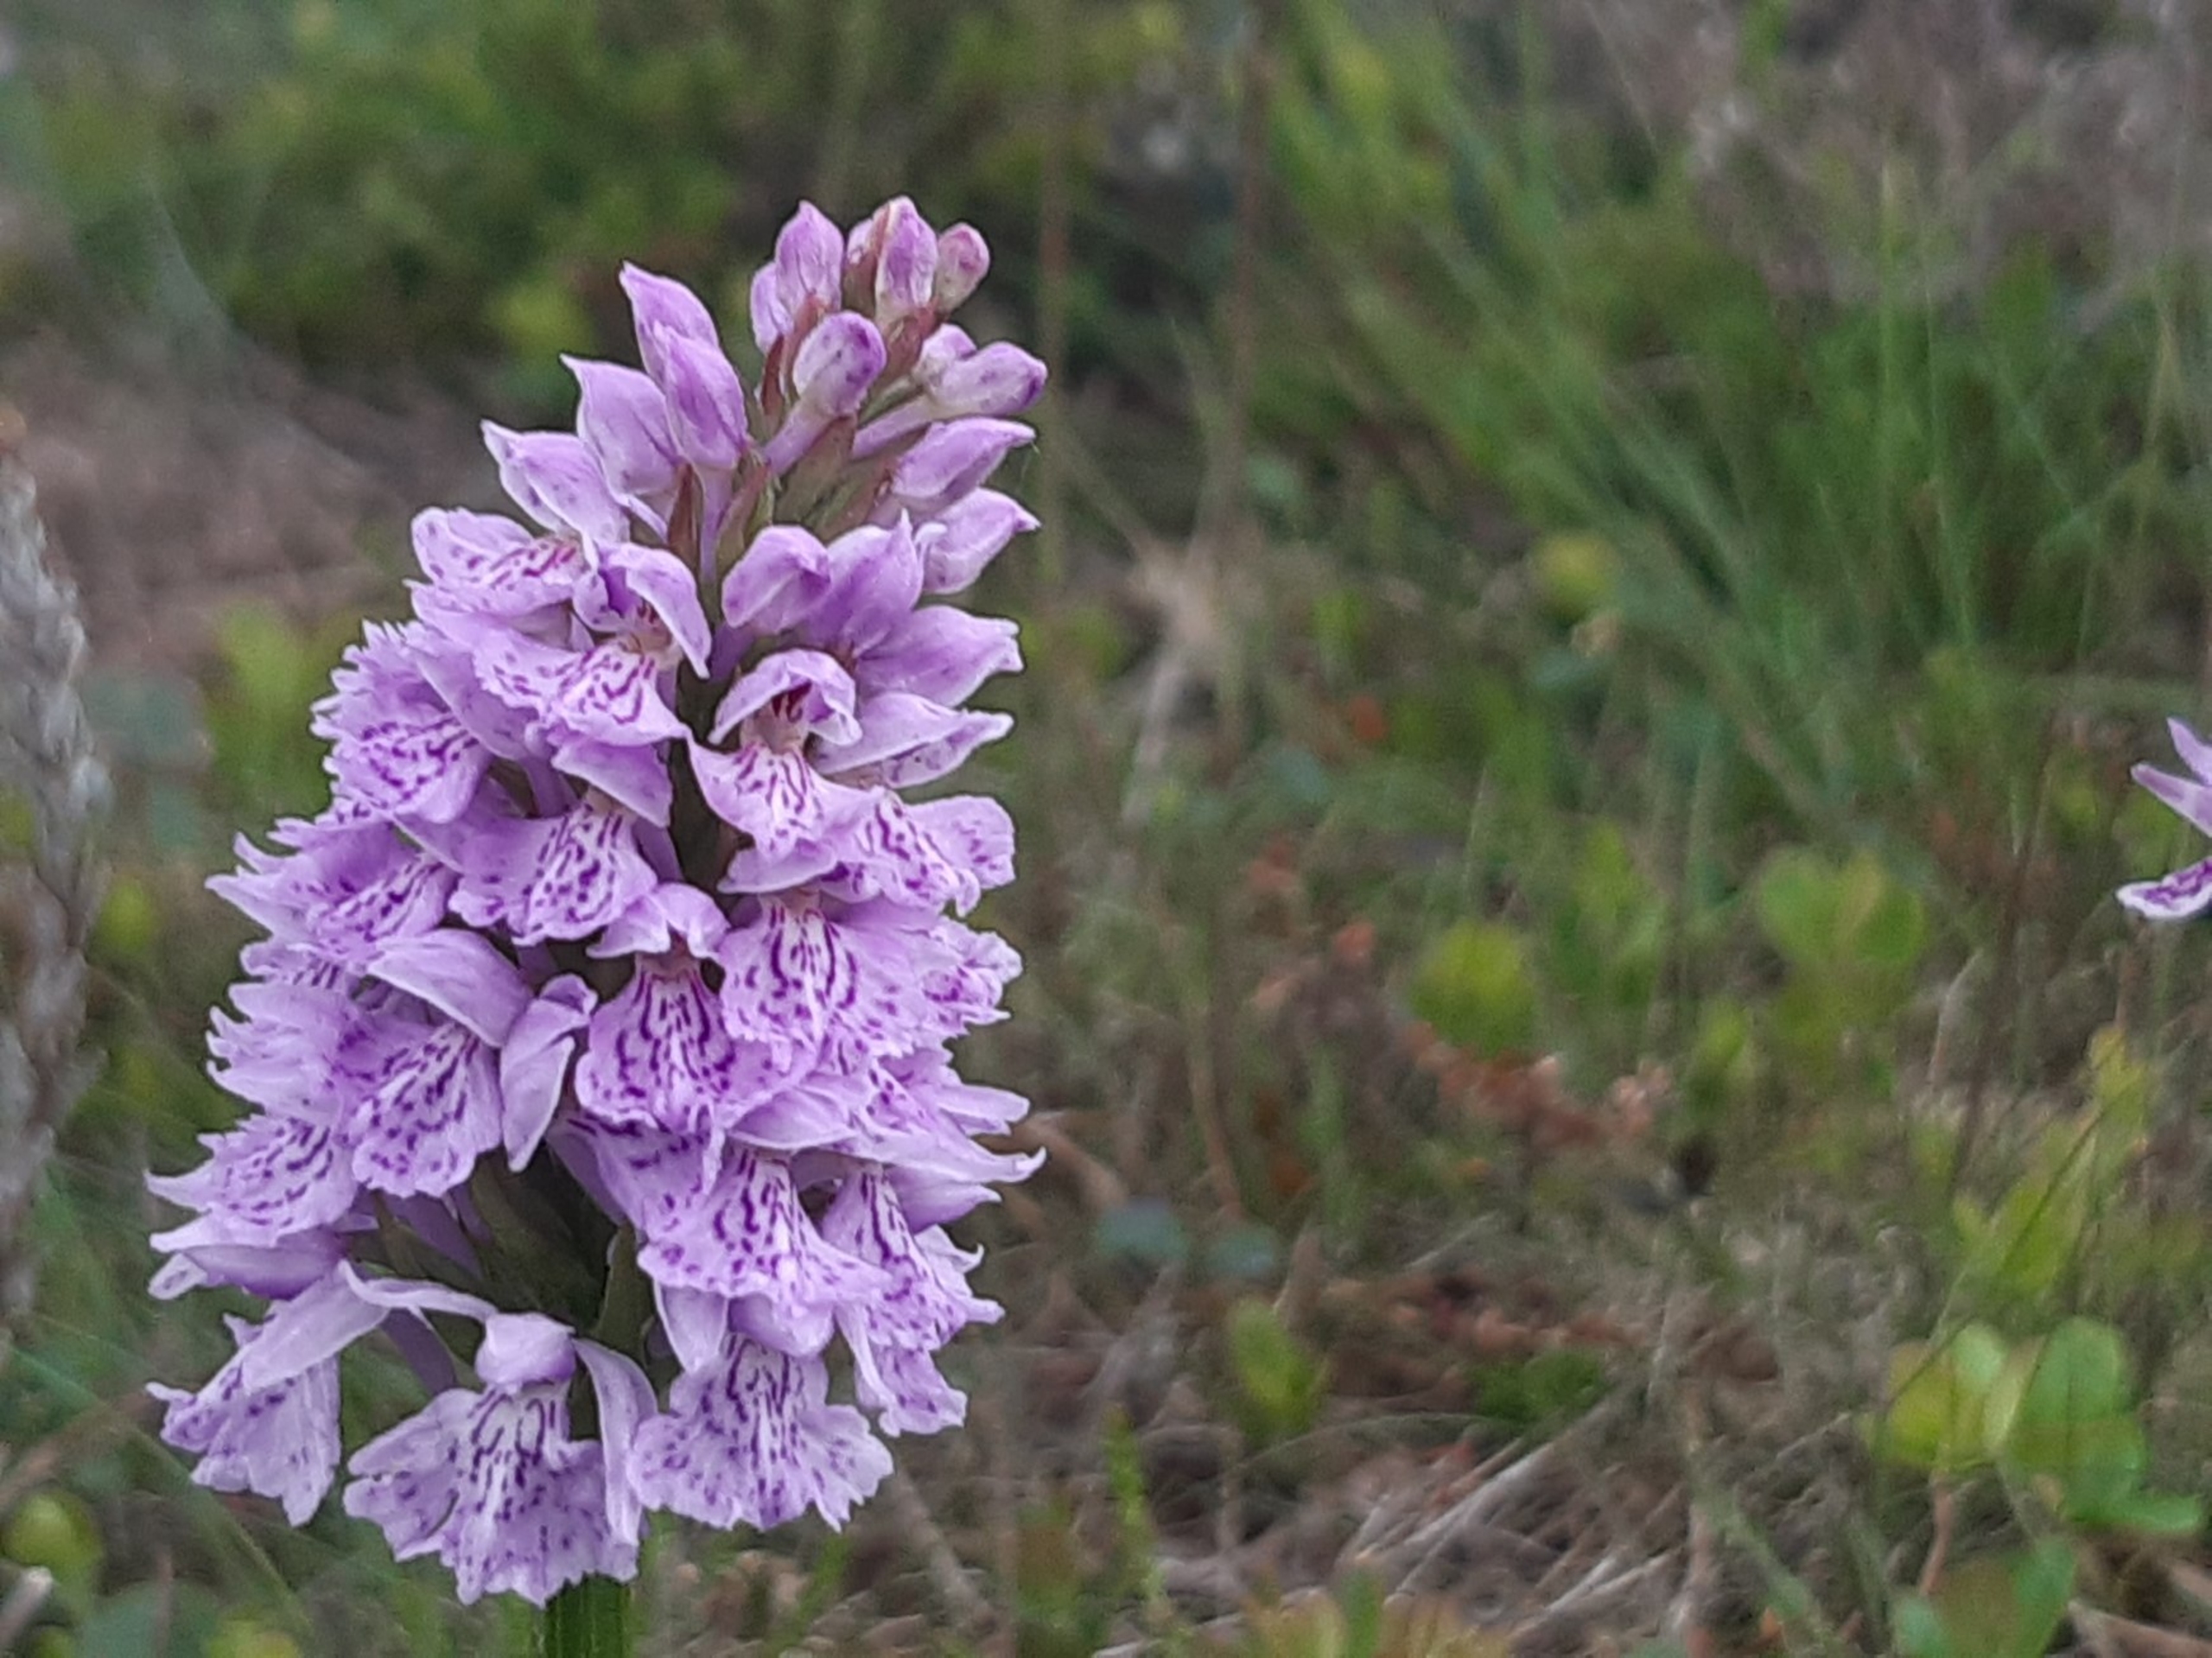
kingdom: Plantae
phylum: Tracheophyta
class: Liliopsida
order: Asparagales
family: Orchidaceae
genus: Dactylorhiza
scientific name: Dactylorhiza maculata
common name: Plettet gøgeurt (underart)
